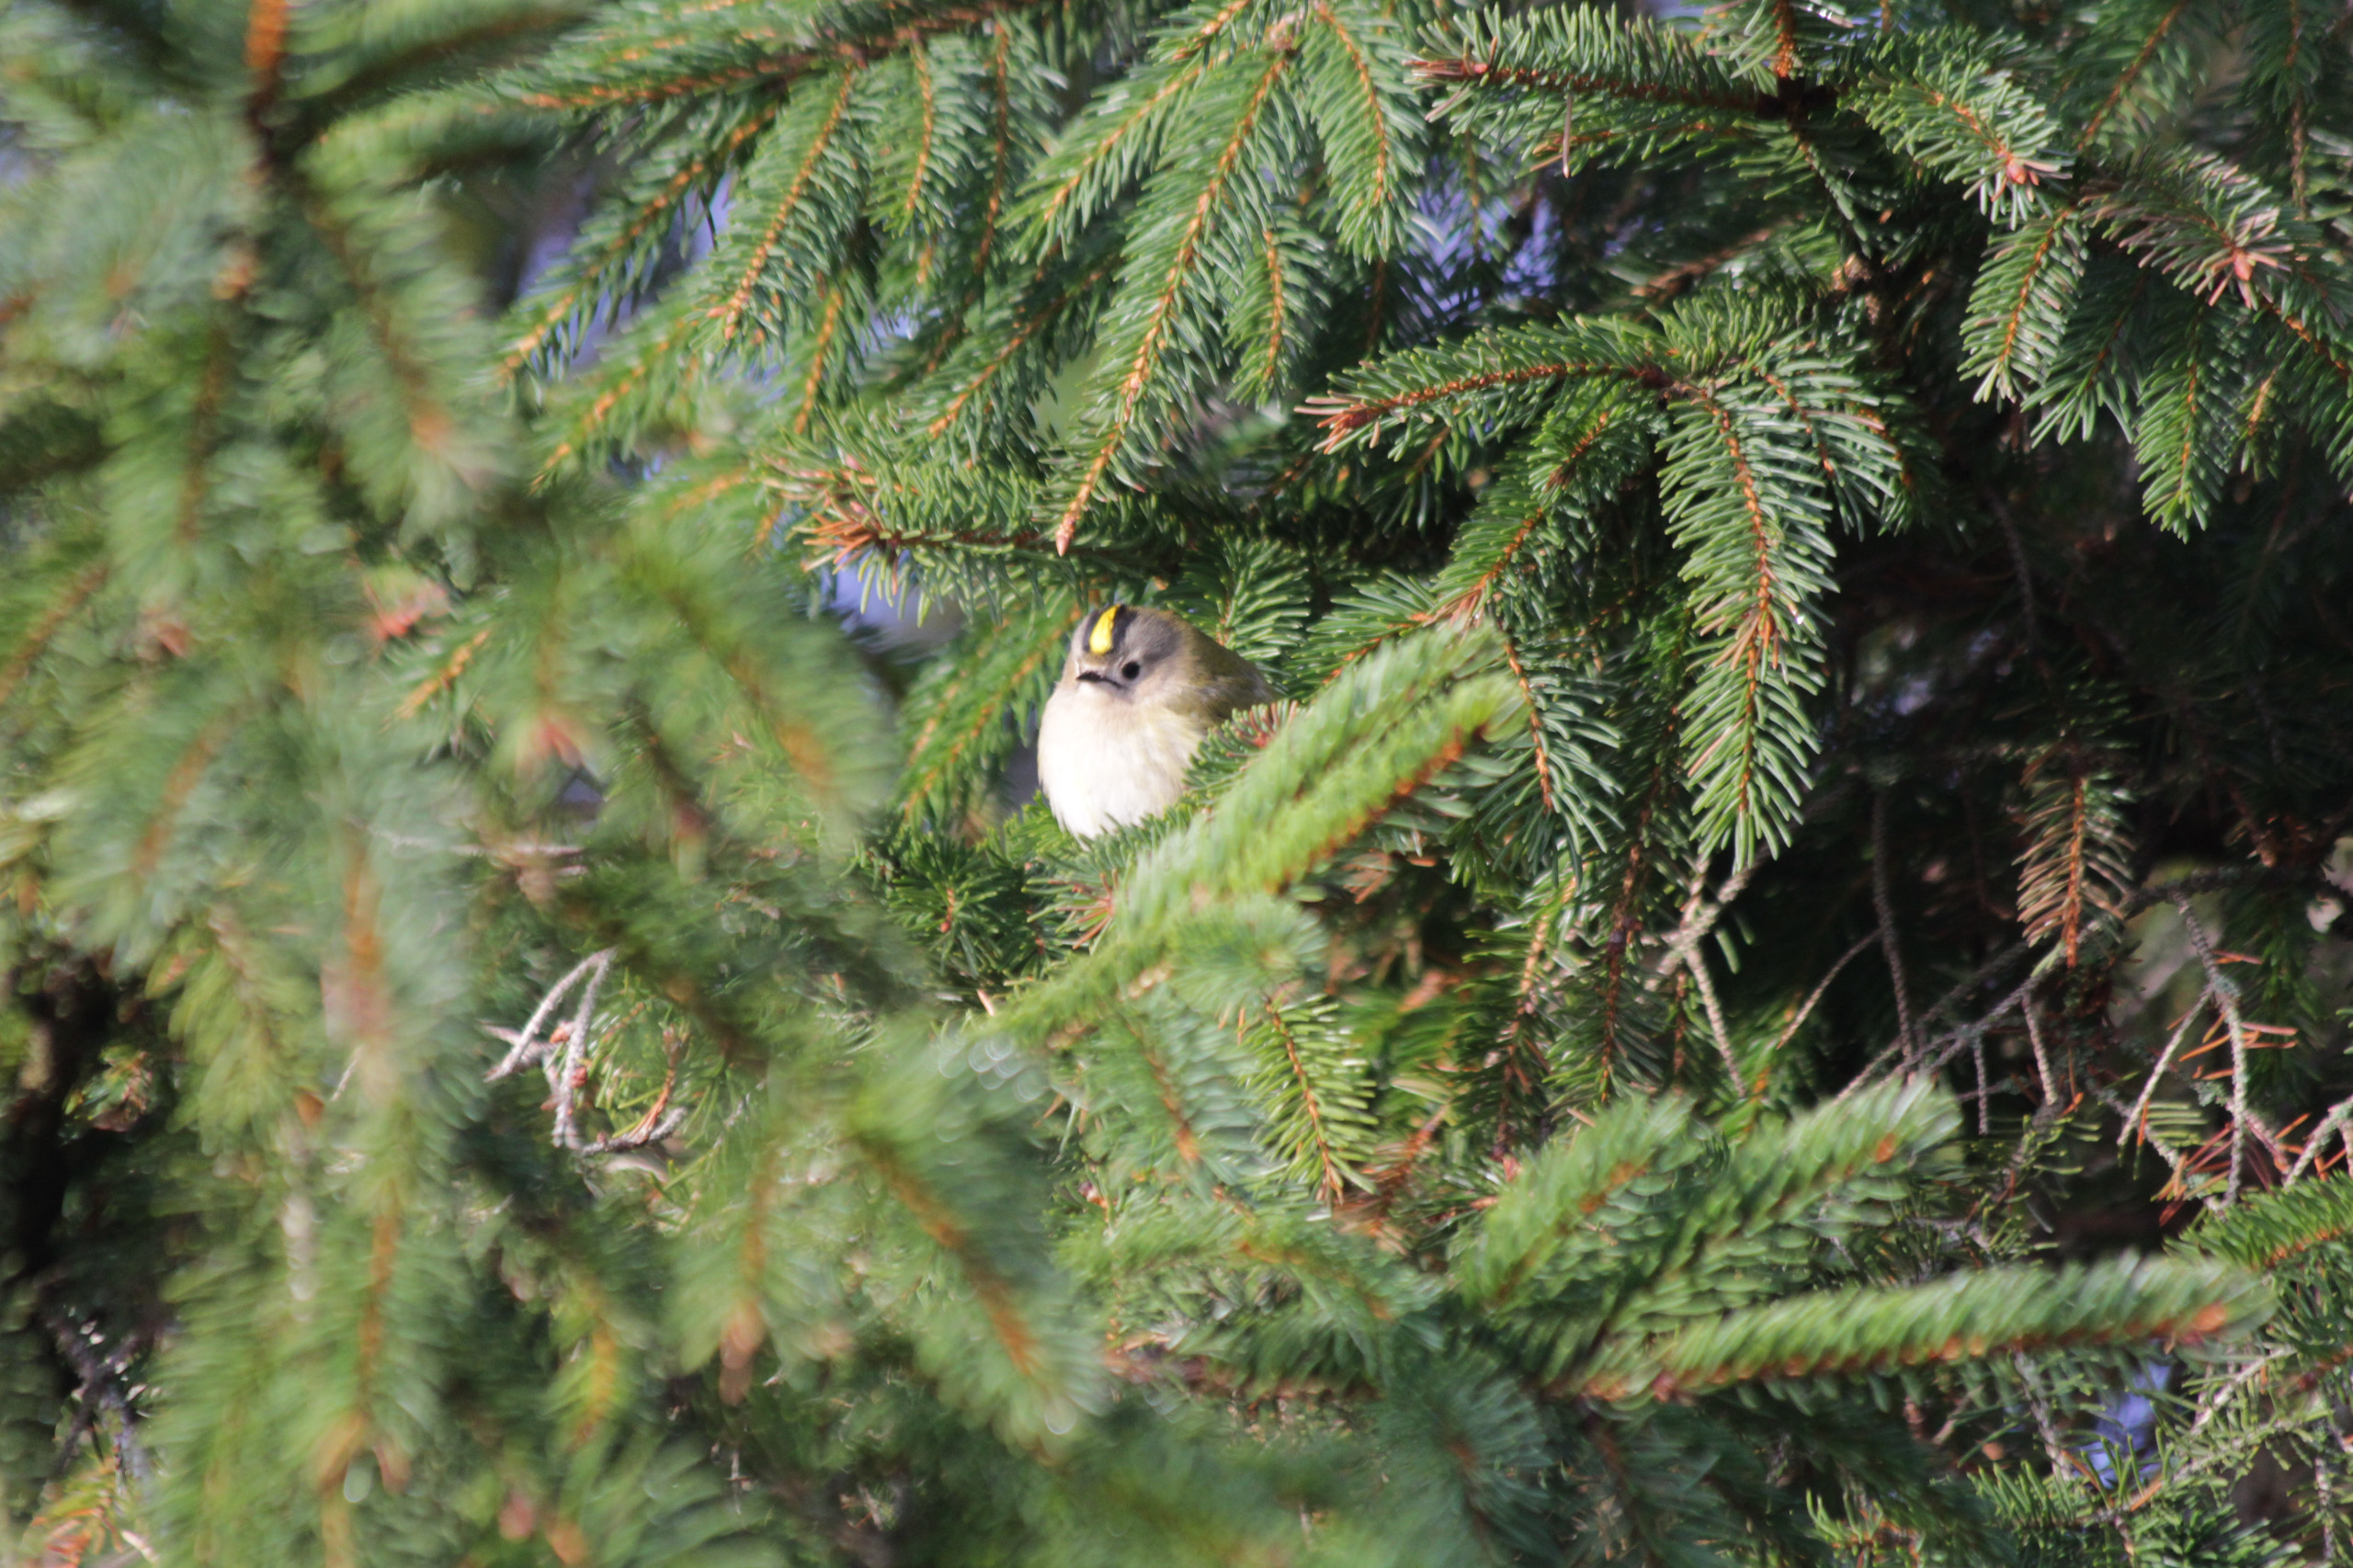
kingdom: Animalia
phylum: Chordata
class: Aves
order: Passeriformes
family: Regulidae
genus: Regulus
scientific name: Regulus regulus
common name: Fuglekonge
